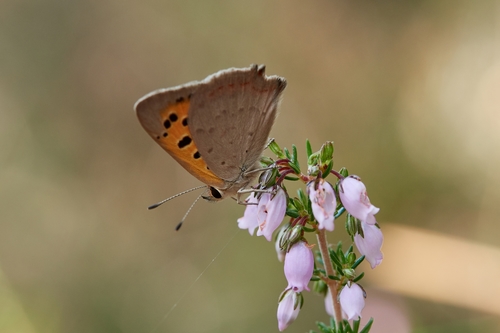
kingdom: Animalia
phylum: Arthropoda
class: Insecta
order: Lepidoptera
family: Lycaenidae
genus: Lycaena
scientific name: Lycaena phlaeas
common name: Small copper
